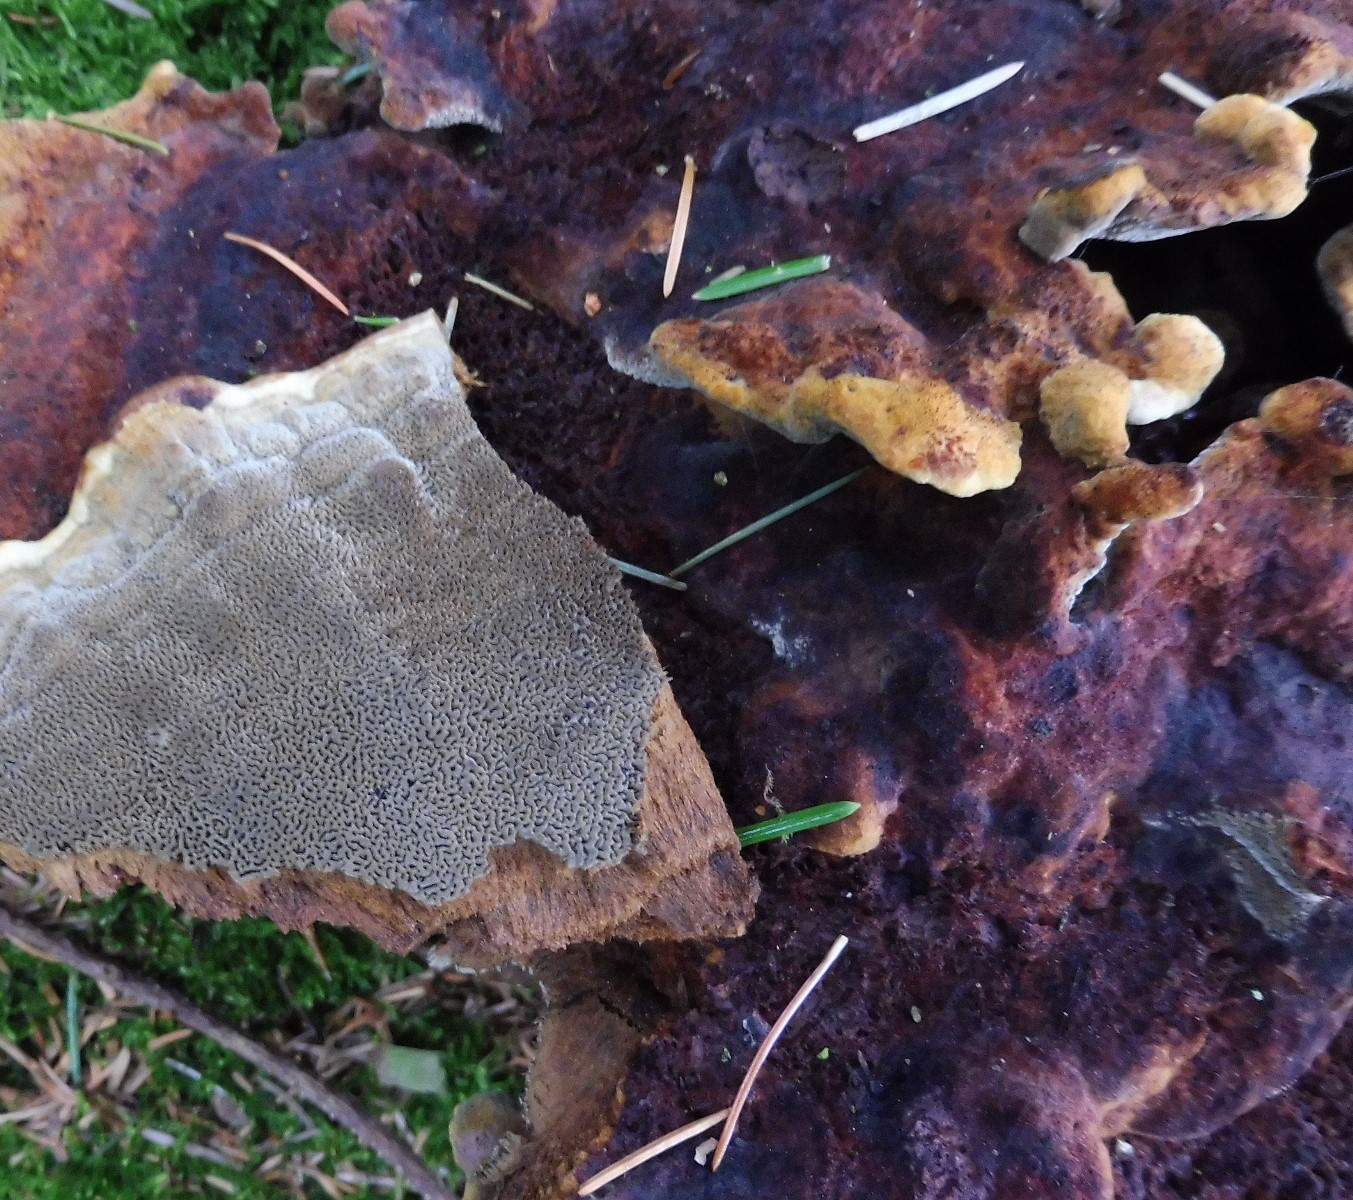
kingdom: Fungi
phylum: Basidiomycota
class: Agaricomycetes
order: Polyporales
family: Laetiporaceae
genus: Phaeolus
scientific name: Phaeolus schweinitzii
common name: brunporesvamp
